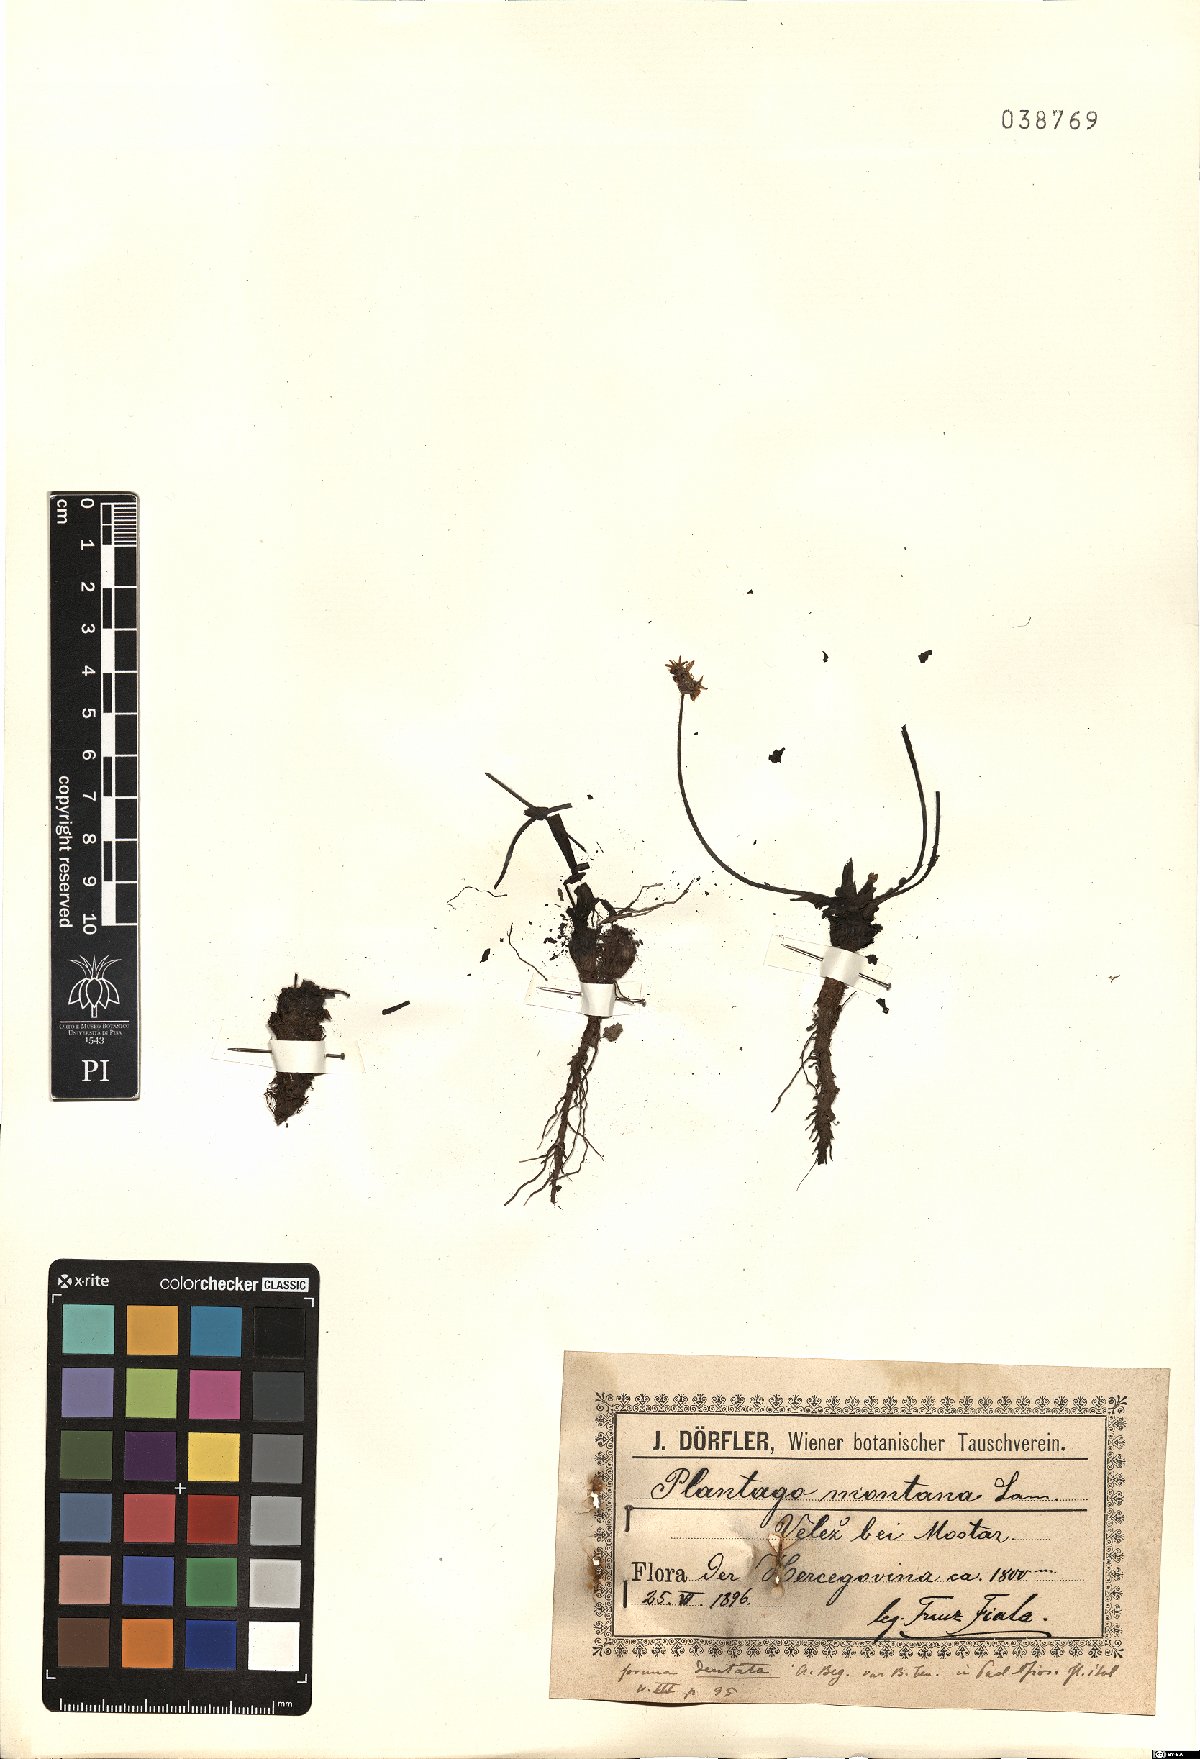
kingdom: Plantae
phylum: Tracheophyta
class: Magnoliopsida
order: Lamiales
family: Plantaginaceae
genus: Plantago
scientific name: Plantago atrata
